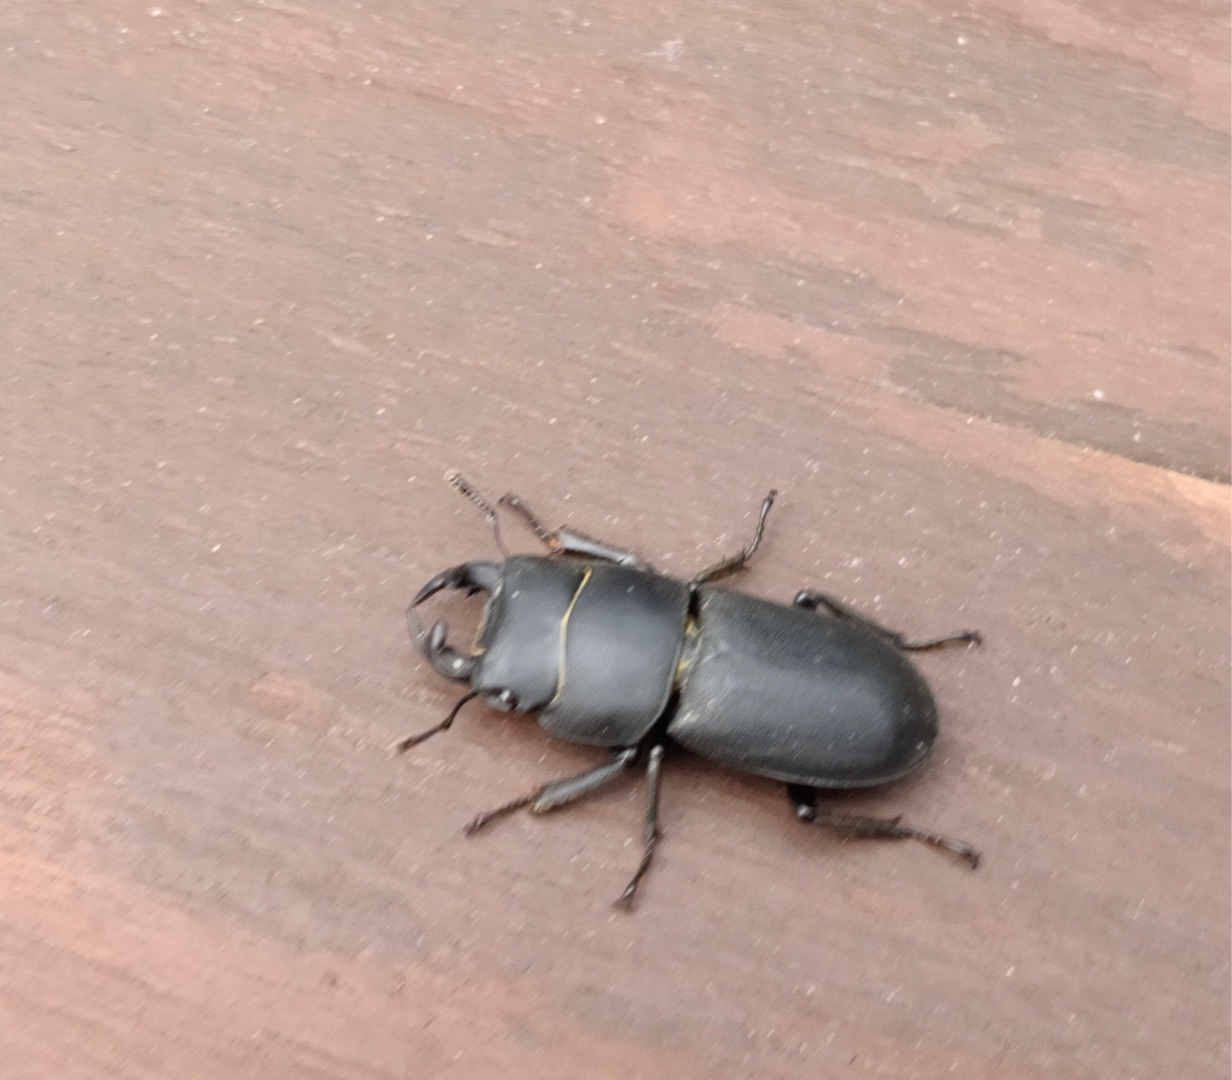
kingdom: Animalia
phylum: Arthropoda
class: Insecta
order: Coleoptera
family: Lucanidae
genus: Dorcus
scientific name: Dorcus parallelipipedus
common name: Bøghjort
